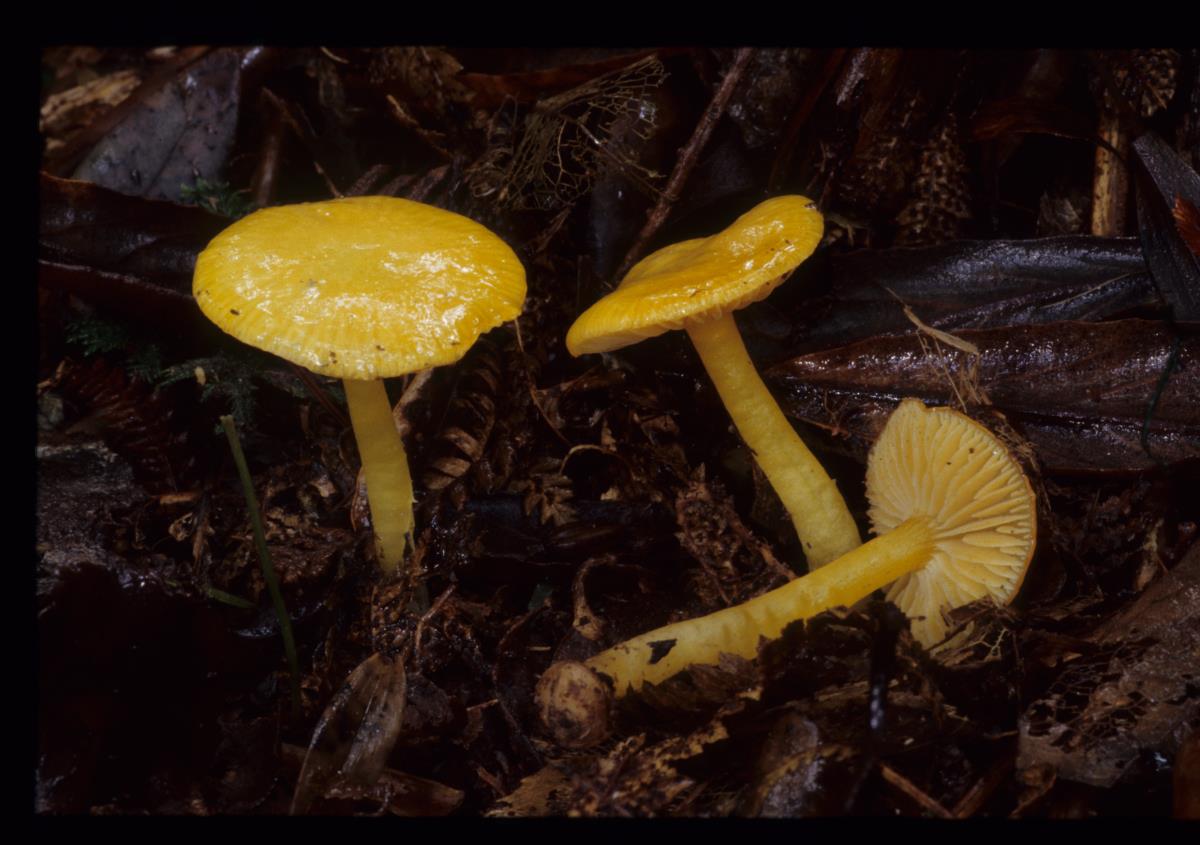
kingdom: Fungi
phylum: Basidiomycota
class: Agaricomycetes
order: Agaricales
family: Hygrophoraceae
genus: Hygrocybe
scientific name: Hygrocybe striatolutea
